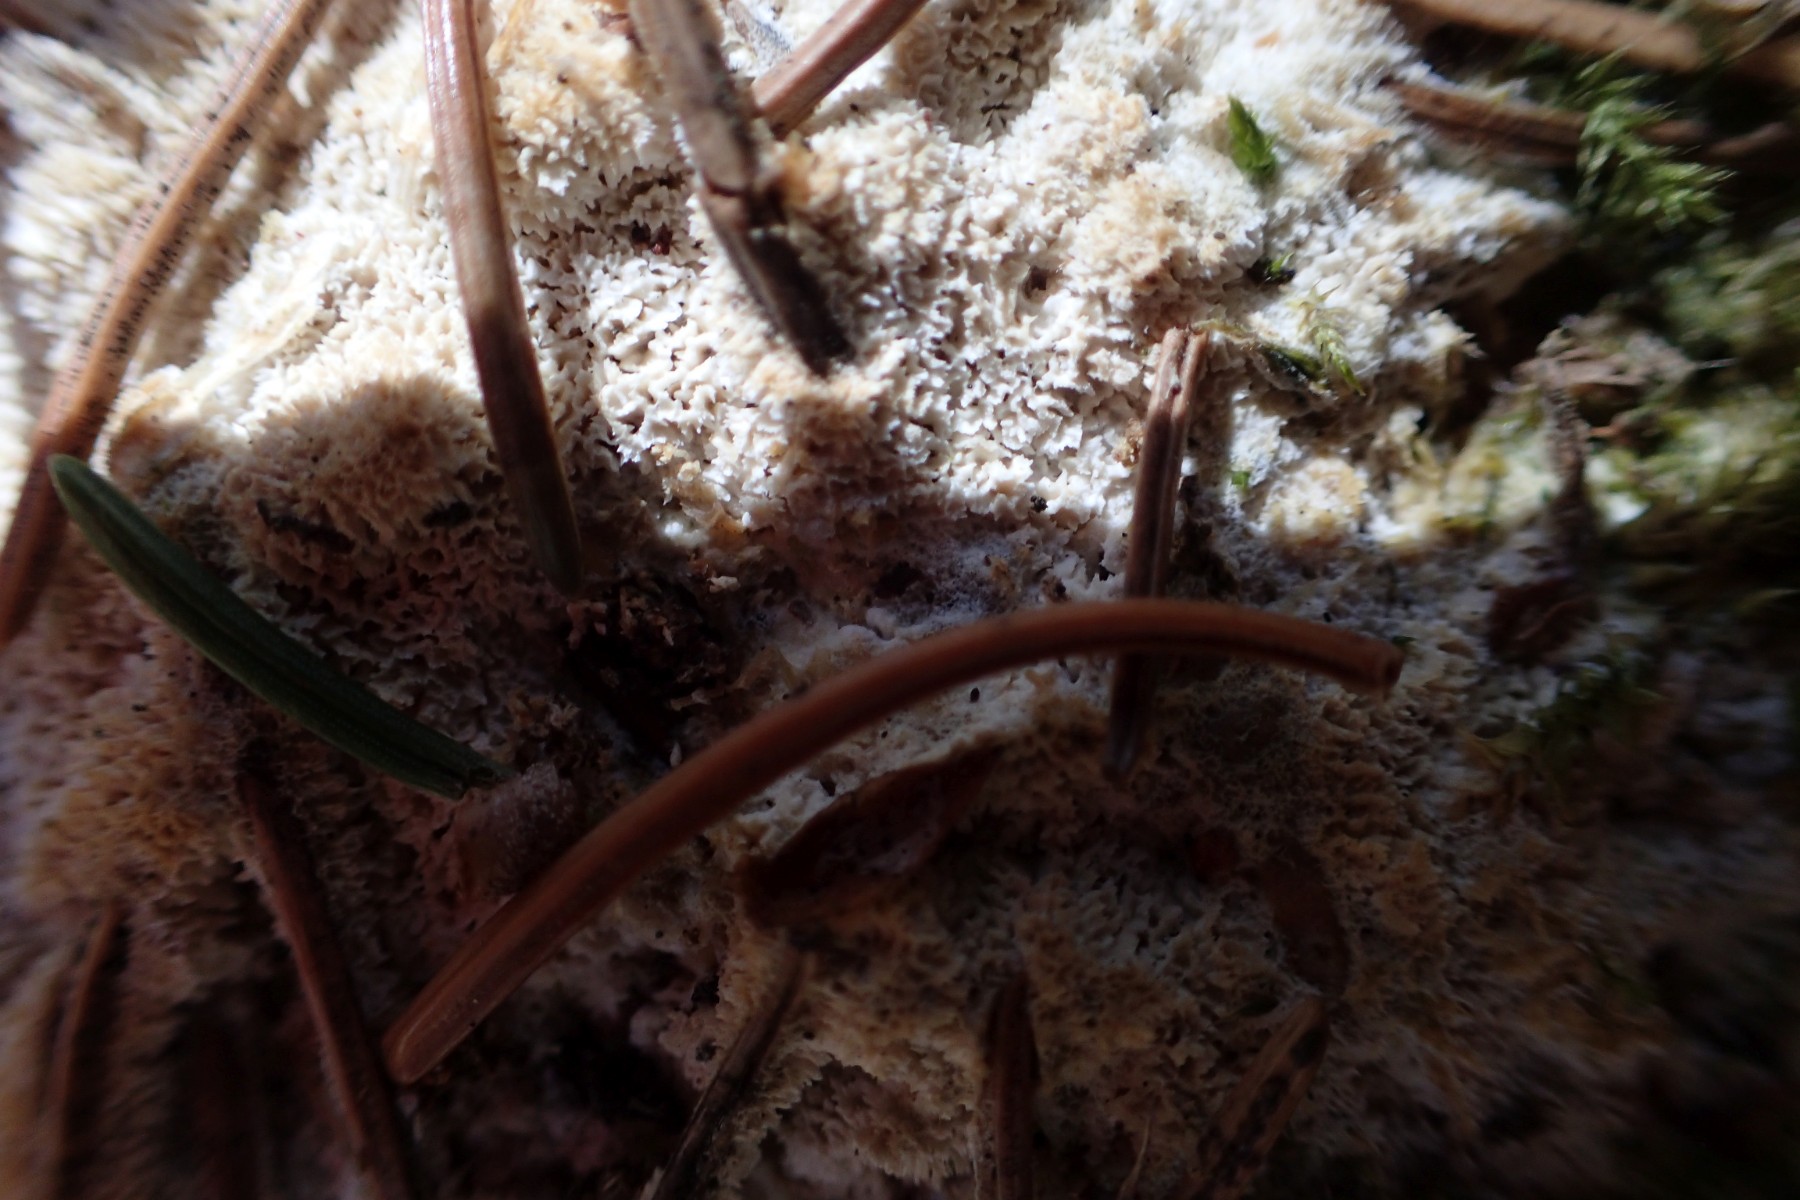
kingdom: Fungi
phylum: Basidiomycota
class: Agaricomycetes
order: Polyporales
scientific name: Polyporales
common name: poresvampordenen
